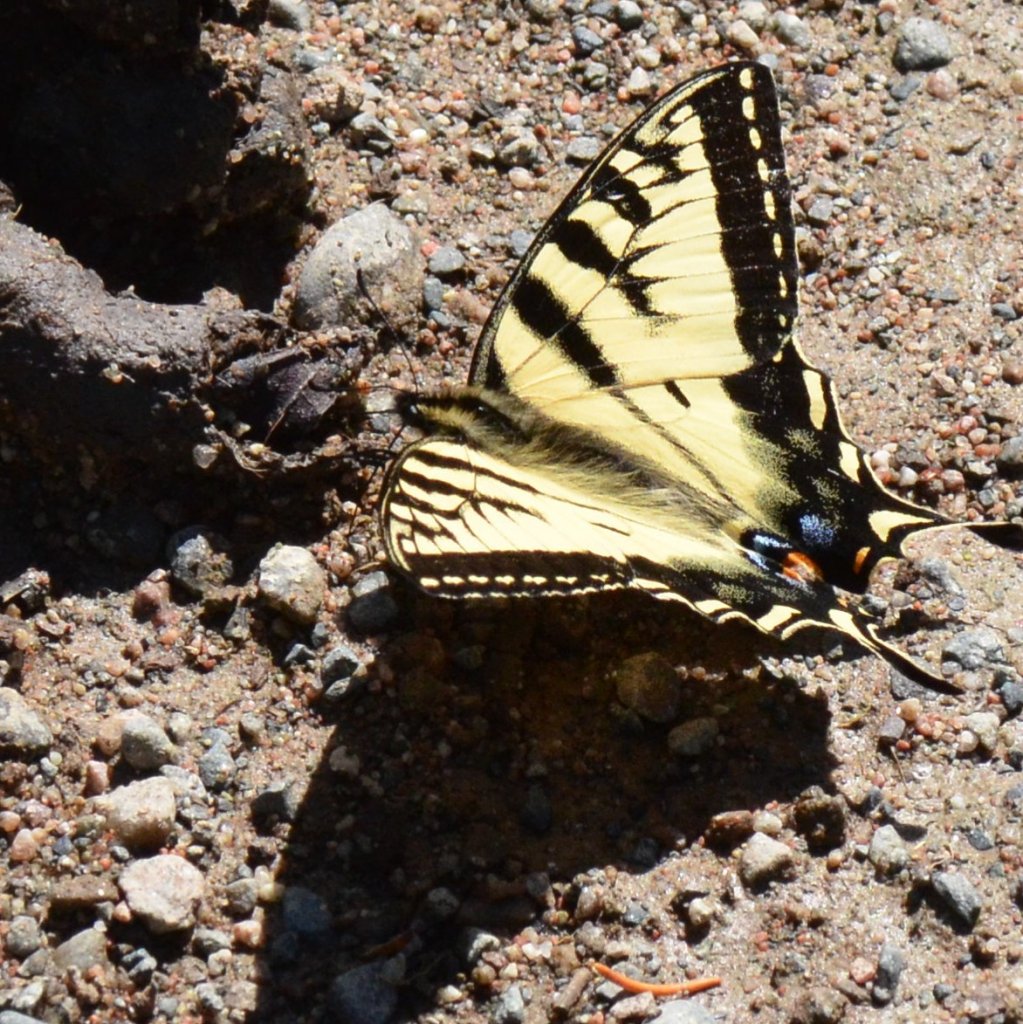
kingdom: Animalia
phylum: Arthropoda
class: Insecta
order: Lepidoptera
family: Papilionidae
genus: Pterourus
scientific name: Pterourus canadensis
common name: Canadian Tiger Swallowtail
